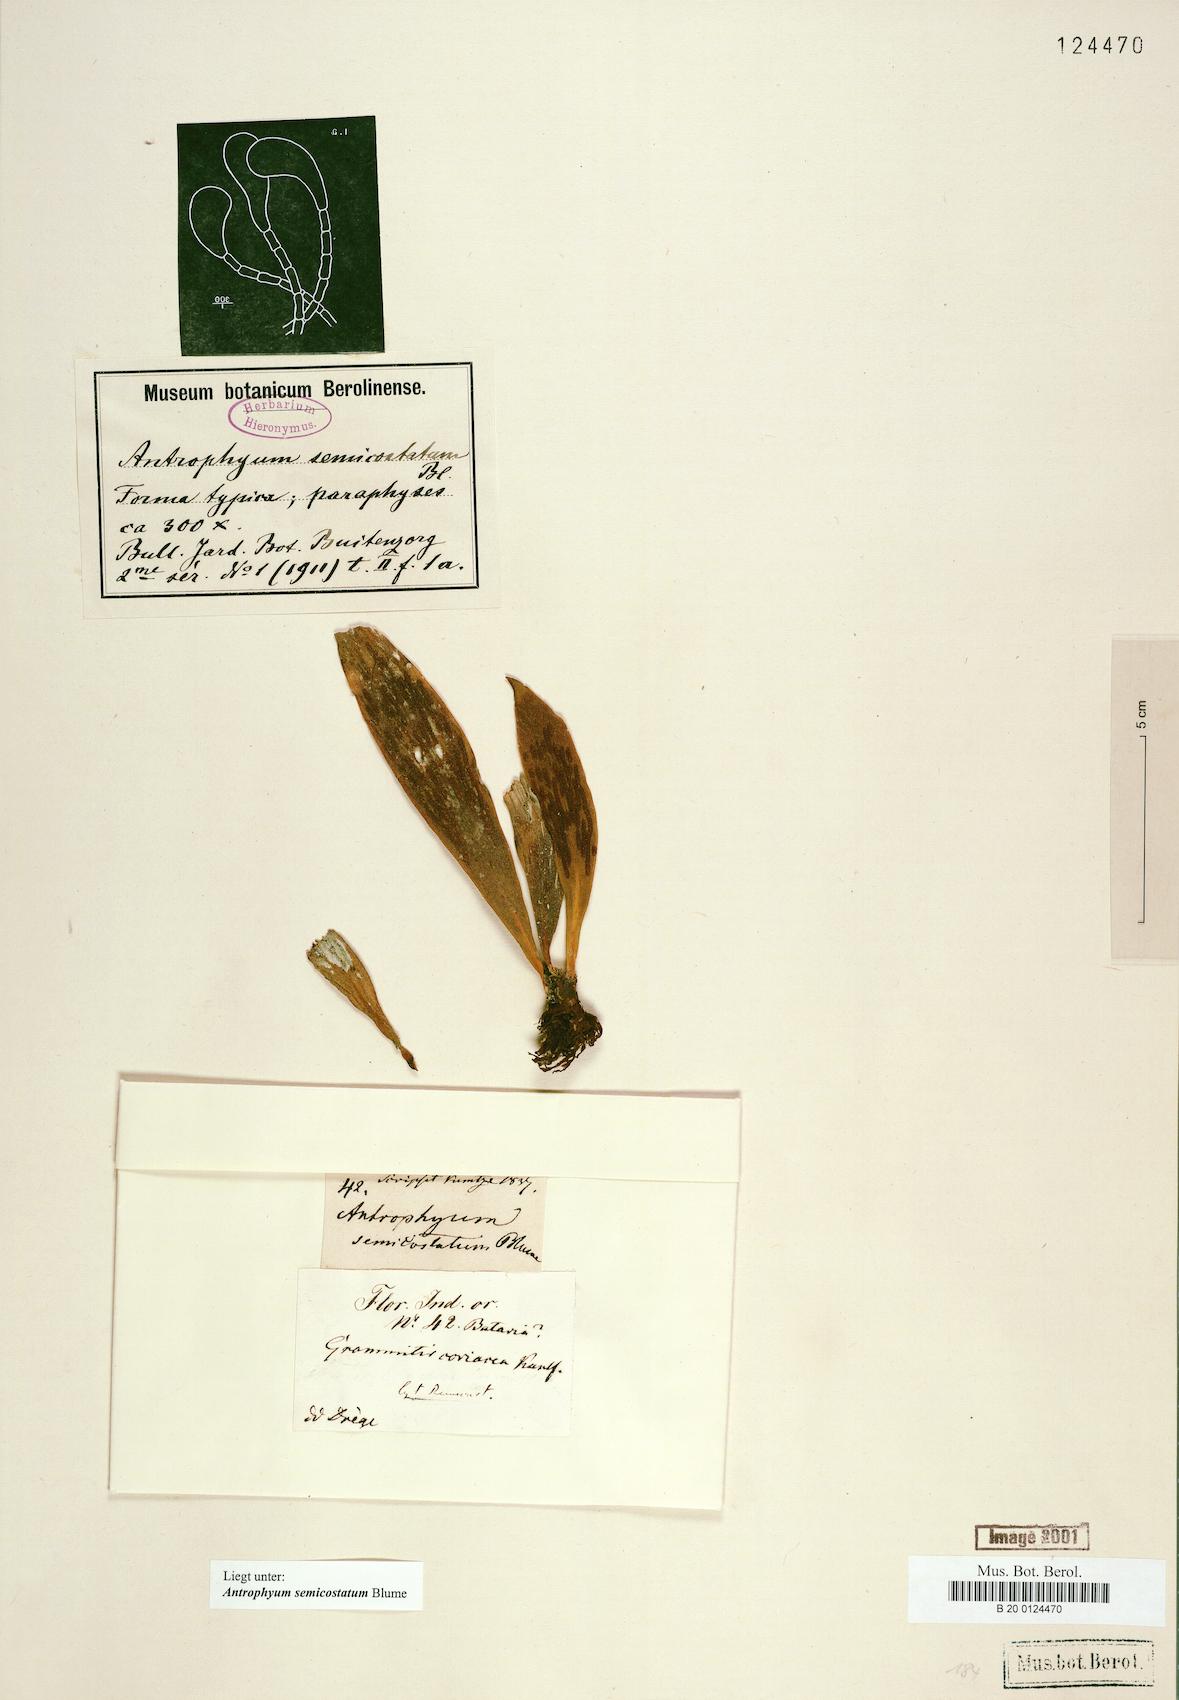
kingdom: Plantae
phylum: Tracheophyta
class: Polypodiopsida
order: Polypodiales
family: Pteridaceae
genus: Antrophyum
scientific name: Antrophyum semicostatum
